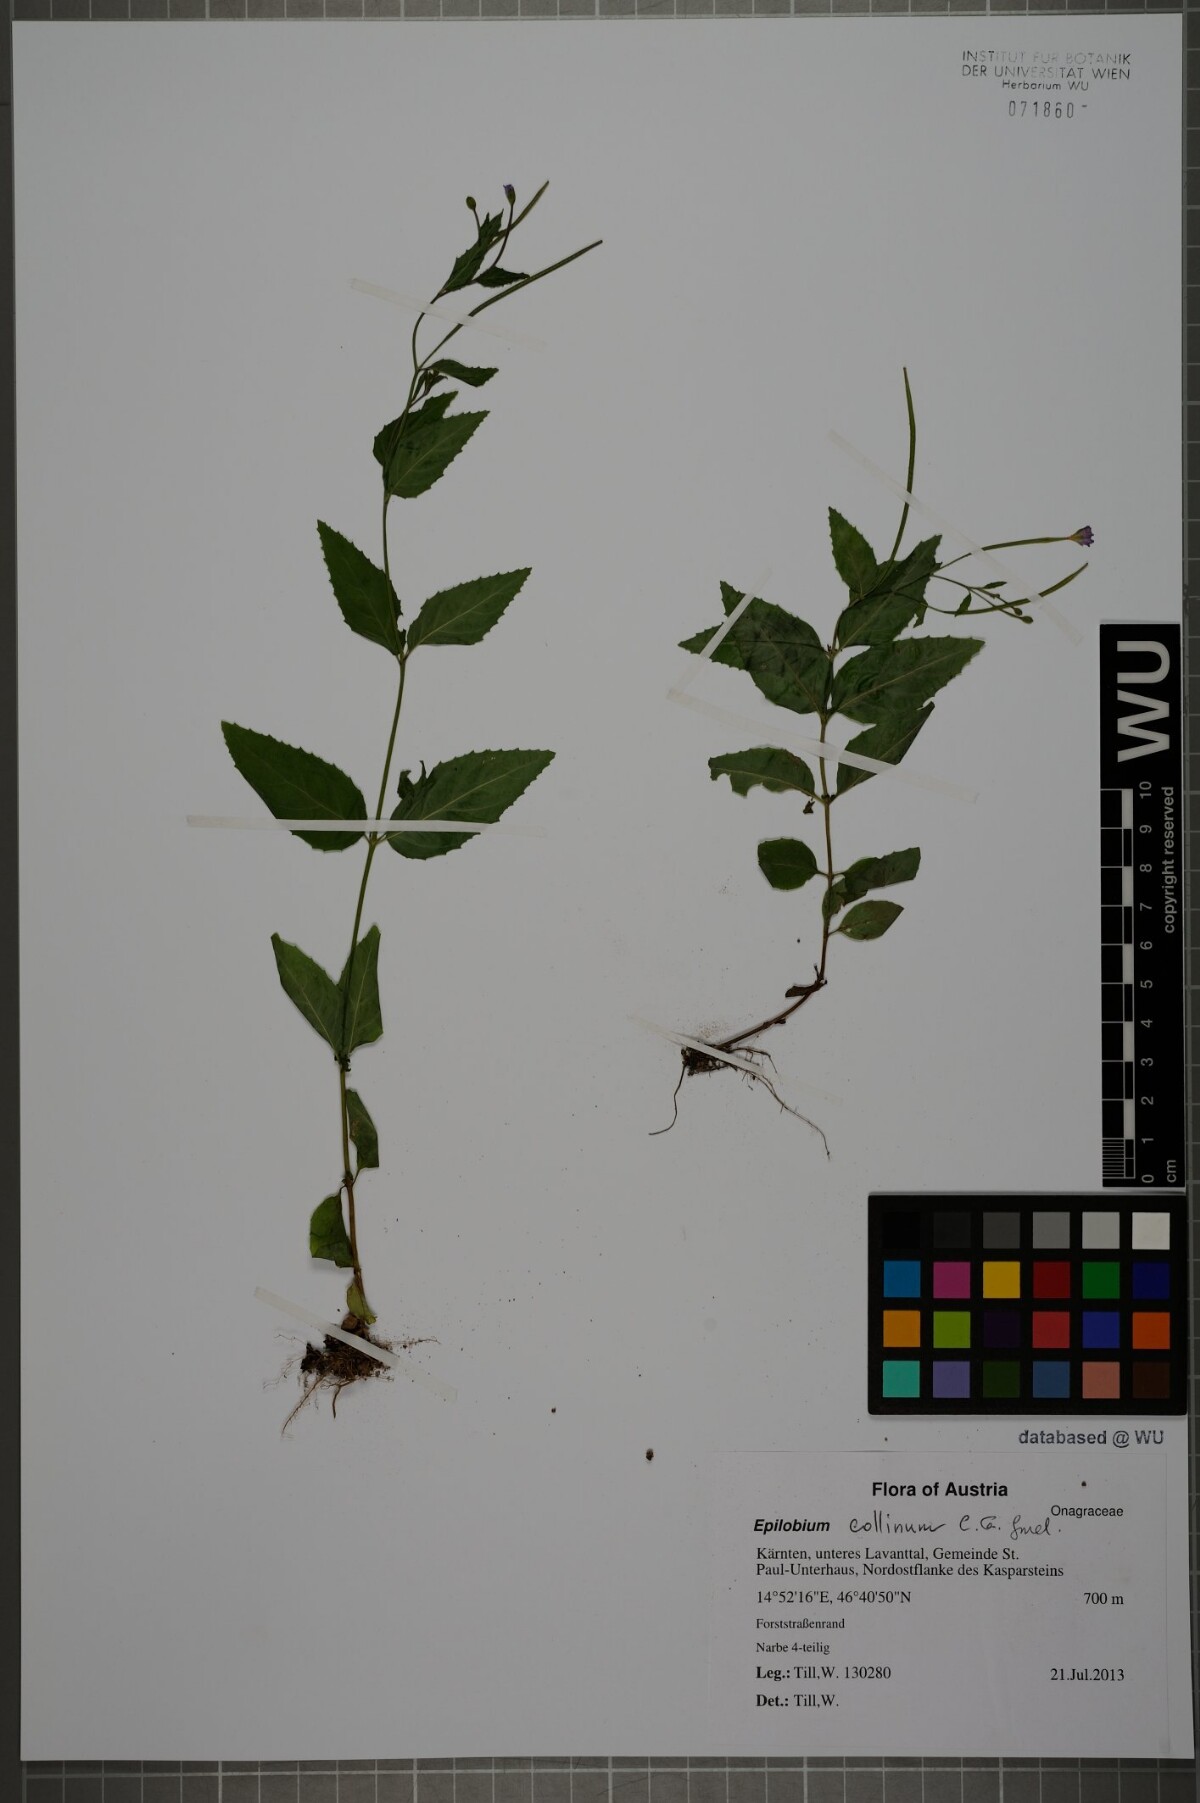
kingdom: Plantae
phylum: Tracheophyta
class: Magnoliopsida
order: Myrtales
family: Onagraceae
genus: Epilobium
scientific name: Epilobium collinum
